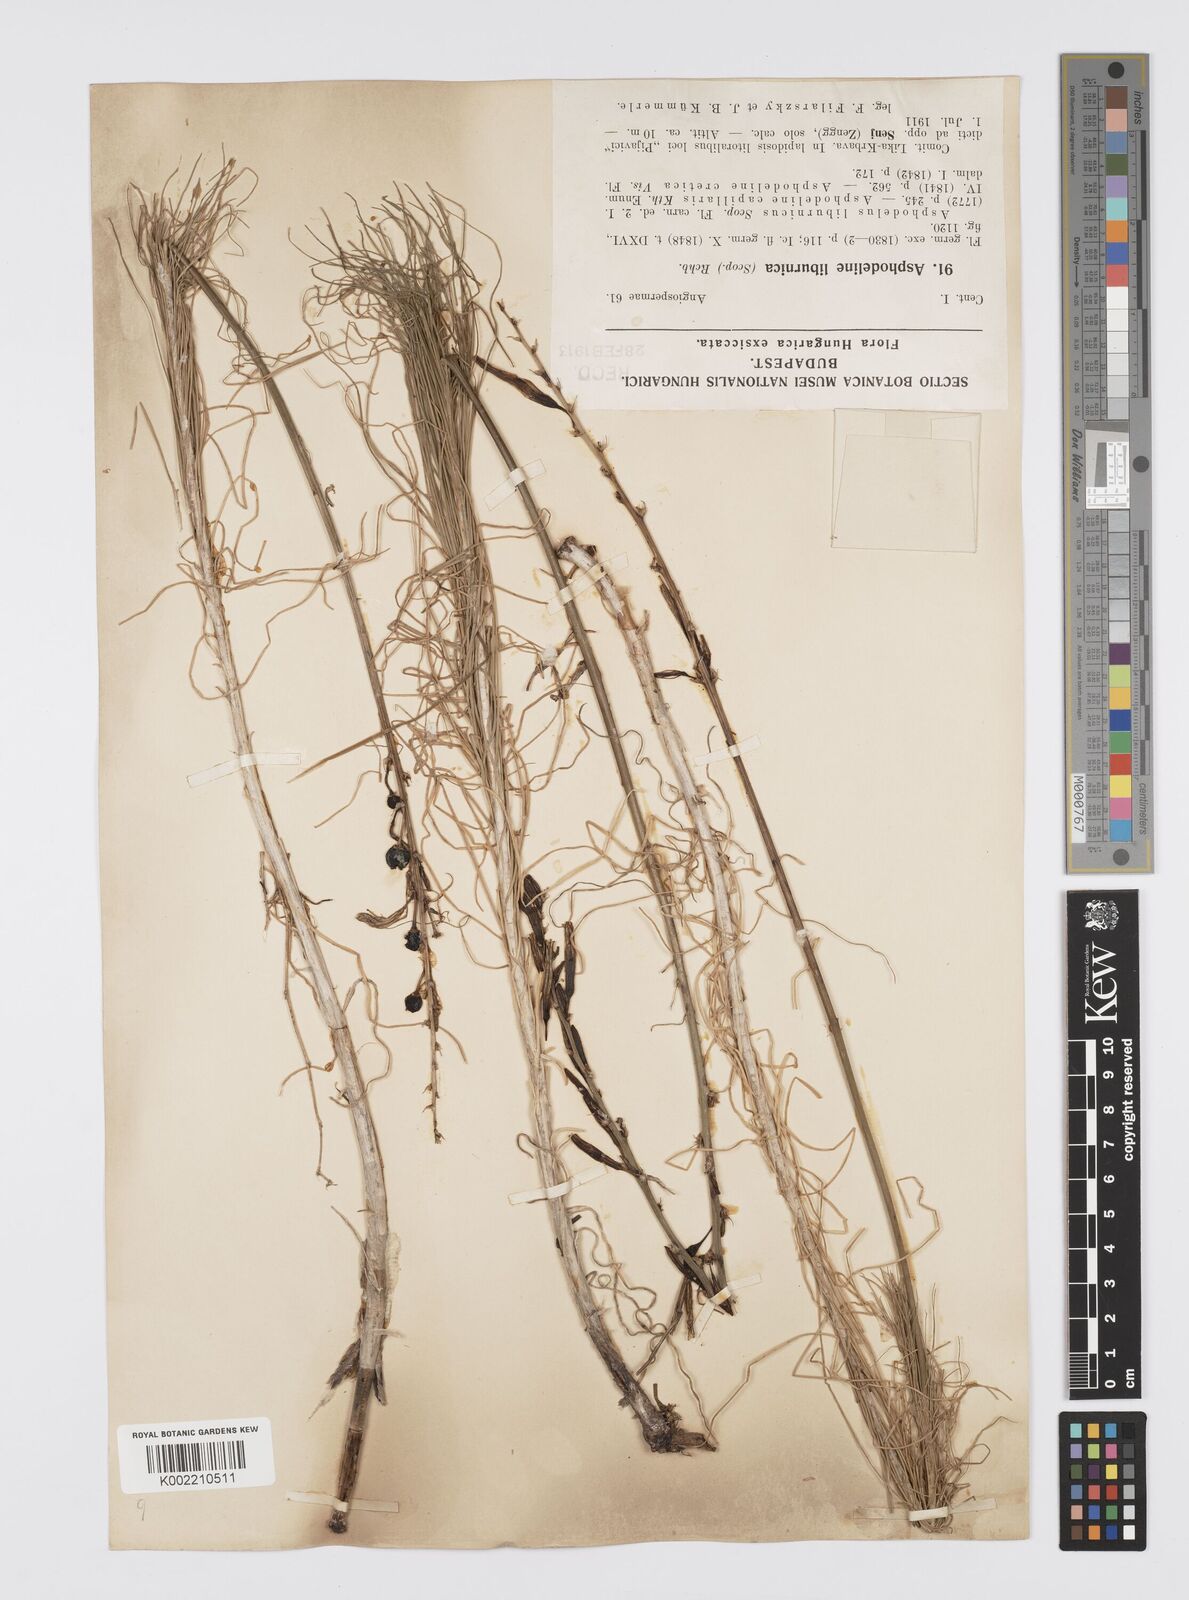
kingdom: Plantae
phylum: Tracheophyta
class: Liliopsida
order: Asparagales
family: Asphodelaceae
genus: Asphodeline
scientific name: Asphodeline liburnica
